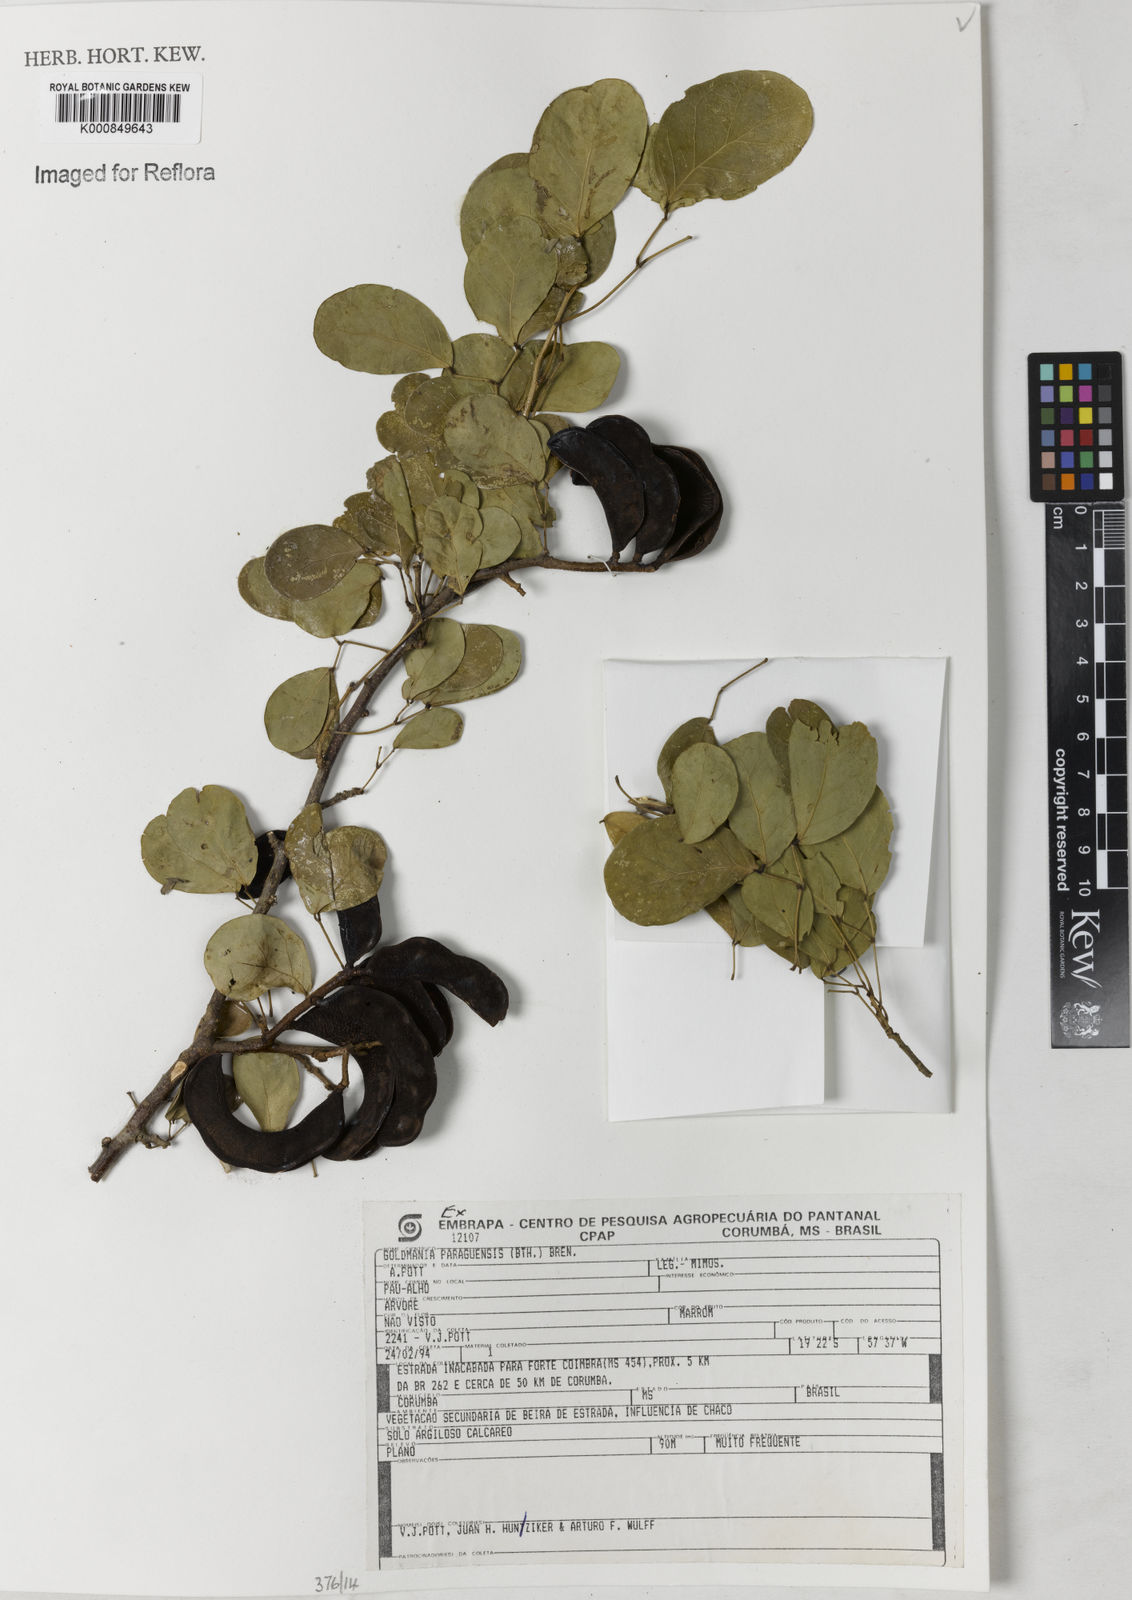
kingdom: Plantae
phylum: Tracheophyta
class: Magnoliopsida
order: Fabales
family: Fabaceae
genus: Microlobius
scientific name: Microlobius
